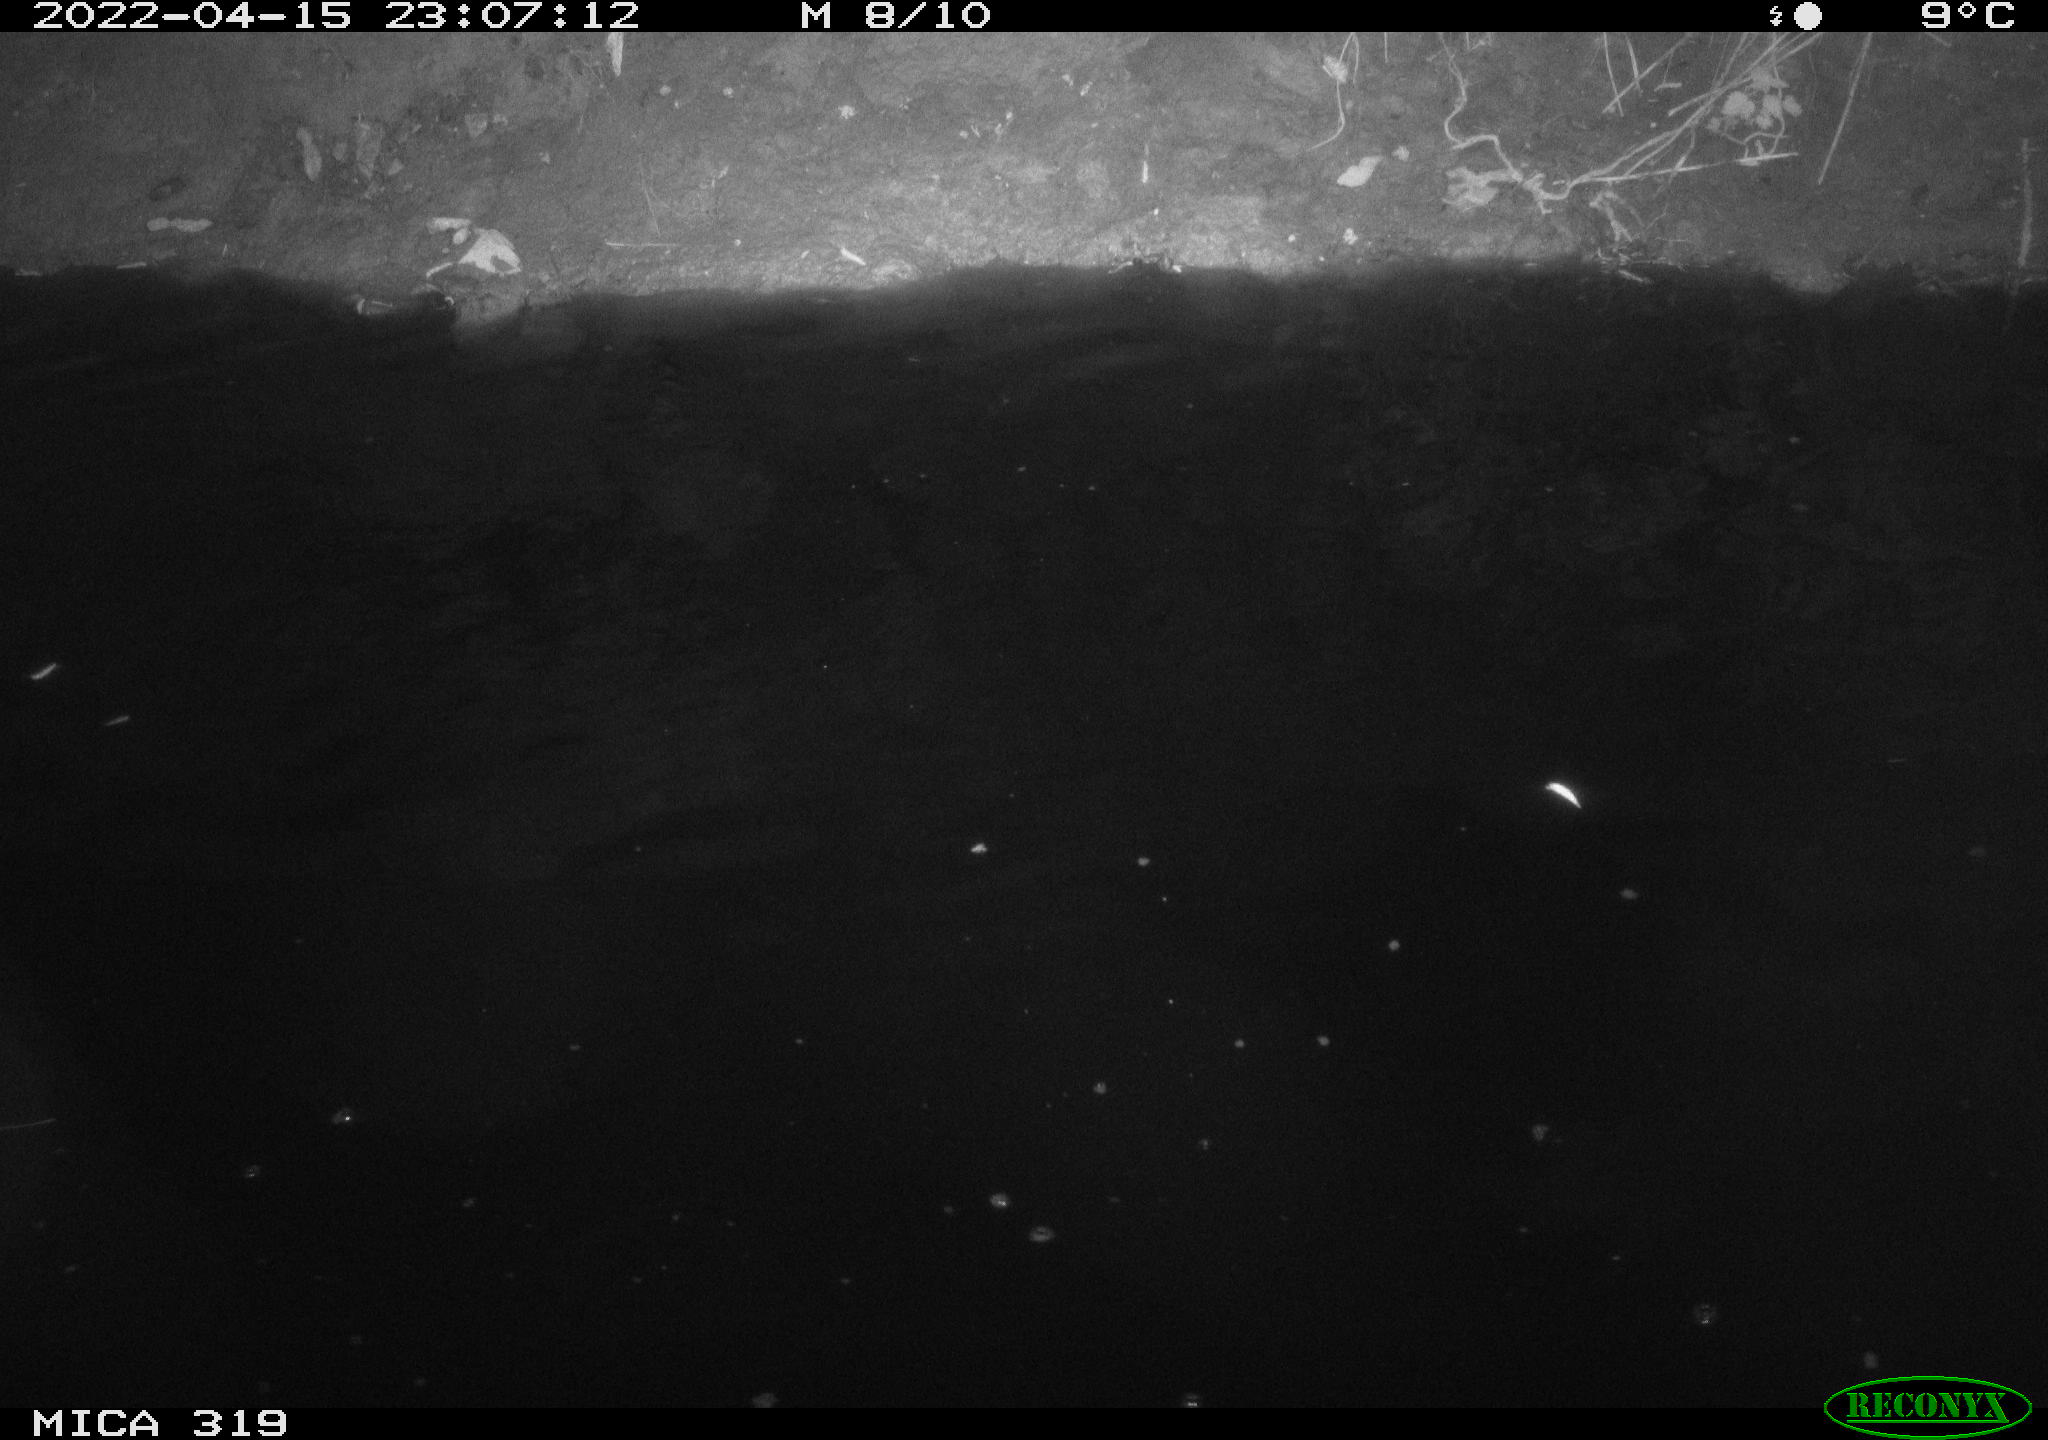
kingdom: Animalia
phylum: Chordata
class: Aves
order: Anseriformes
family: Anatidae
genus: Anas
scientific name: Anas platyrhynchos
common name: Mallard
